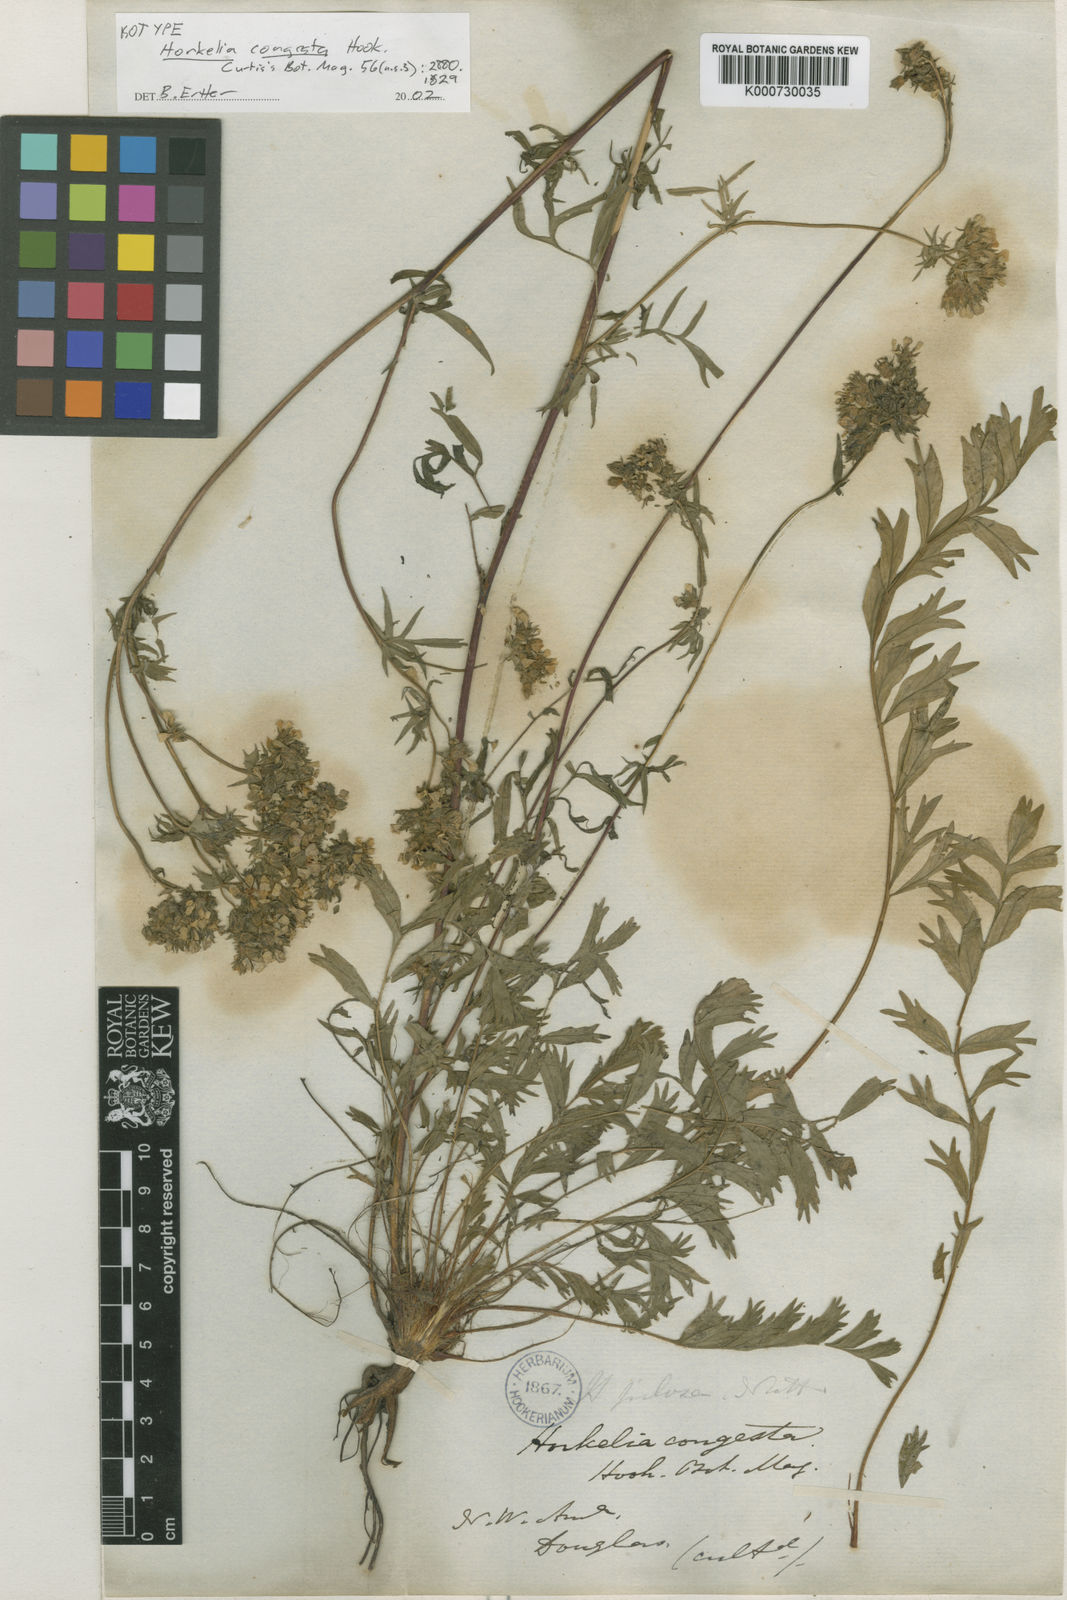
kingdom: Plantae
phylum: Tracheophyta
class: Magnoliopsida
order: Rosales
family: Rosaceae
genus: Potentilla
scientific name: Potentilla congesta
